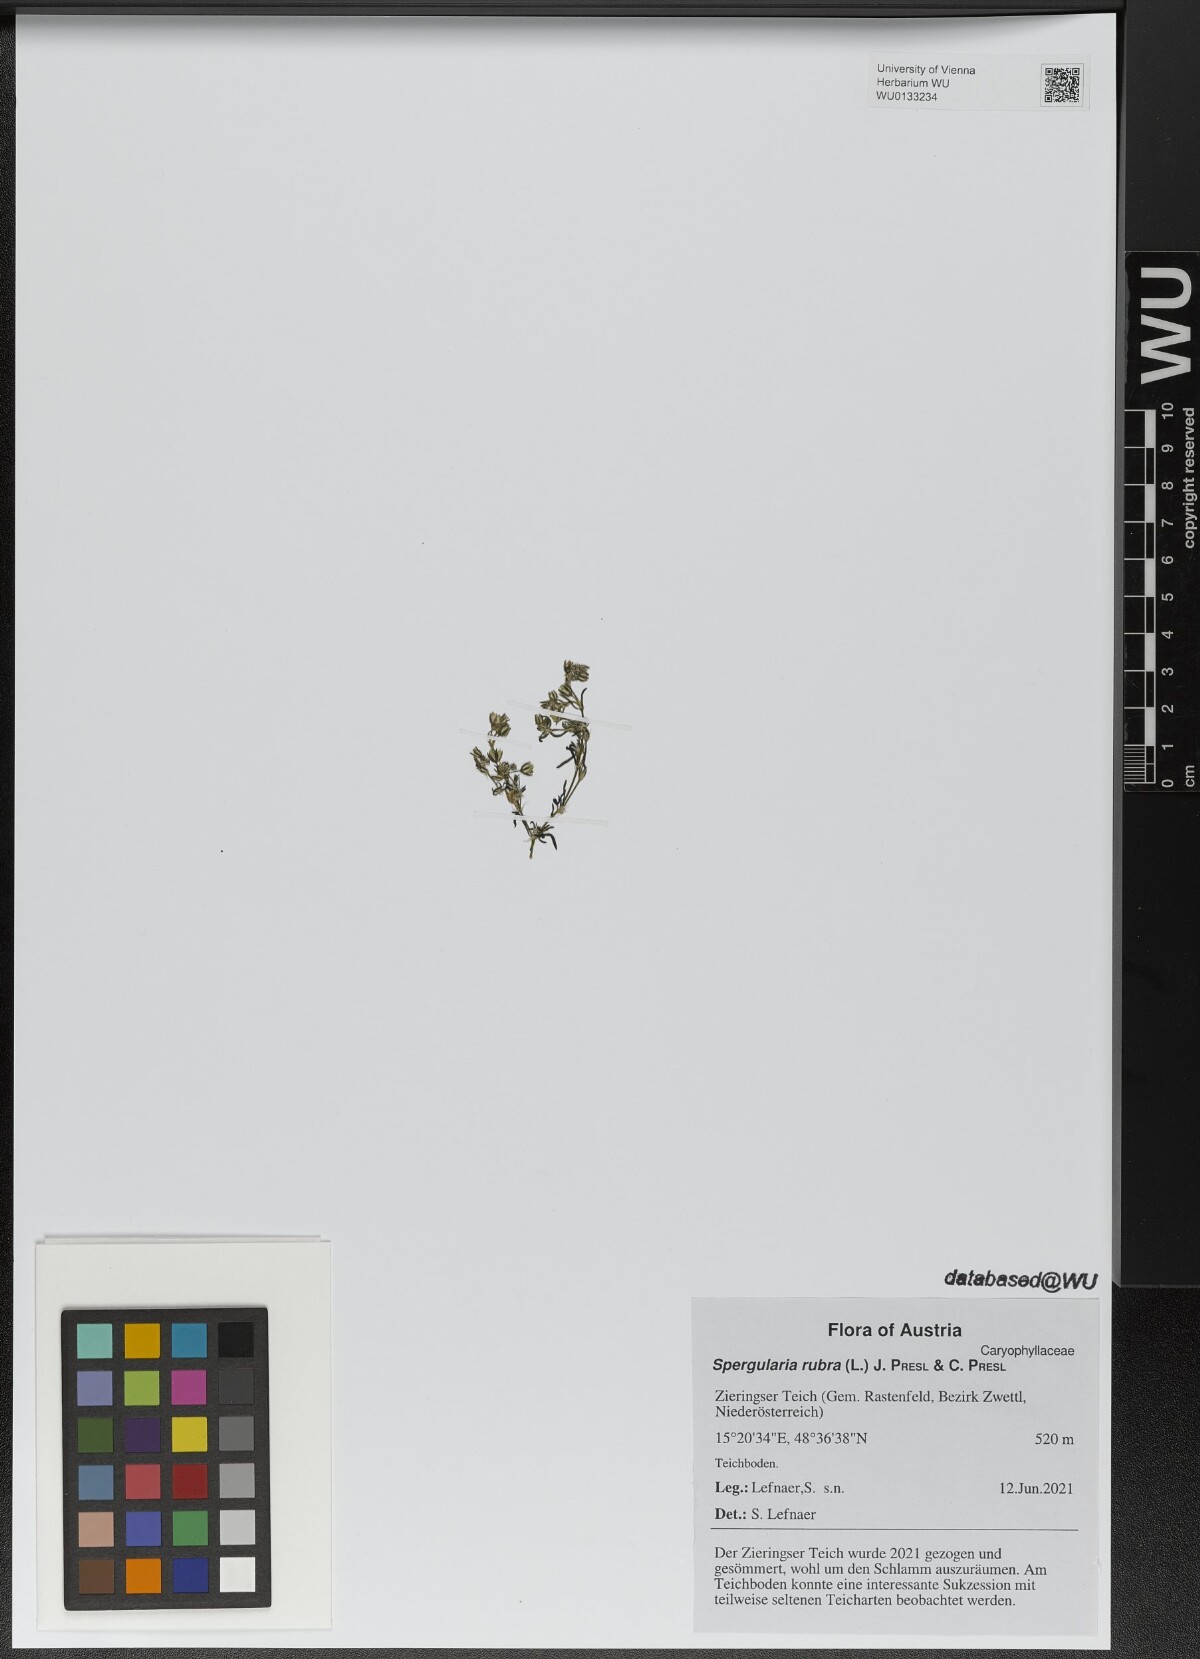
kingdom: Plantae
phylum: Tracheophyta
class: Magnoliopsida
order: Caryophyllales
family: Caryophyllaceae
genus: Spergularia
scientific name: Spergularia rubra
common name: Red sand-spurrey
